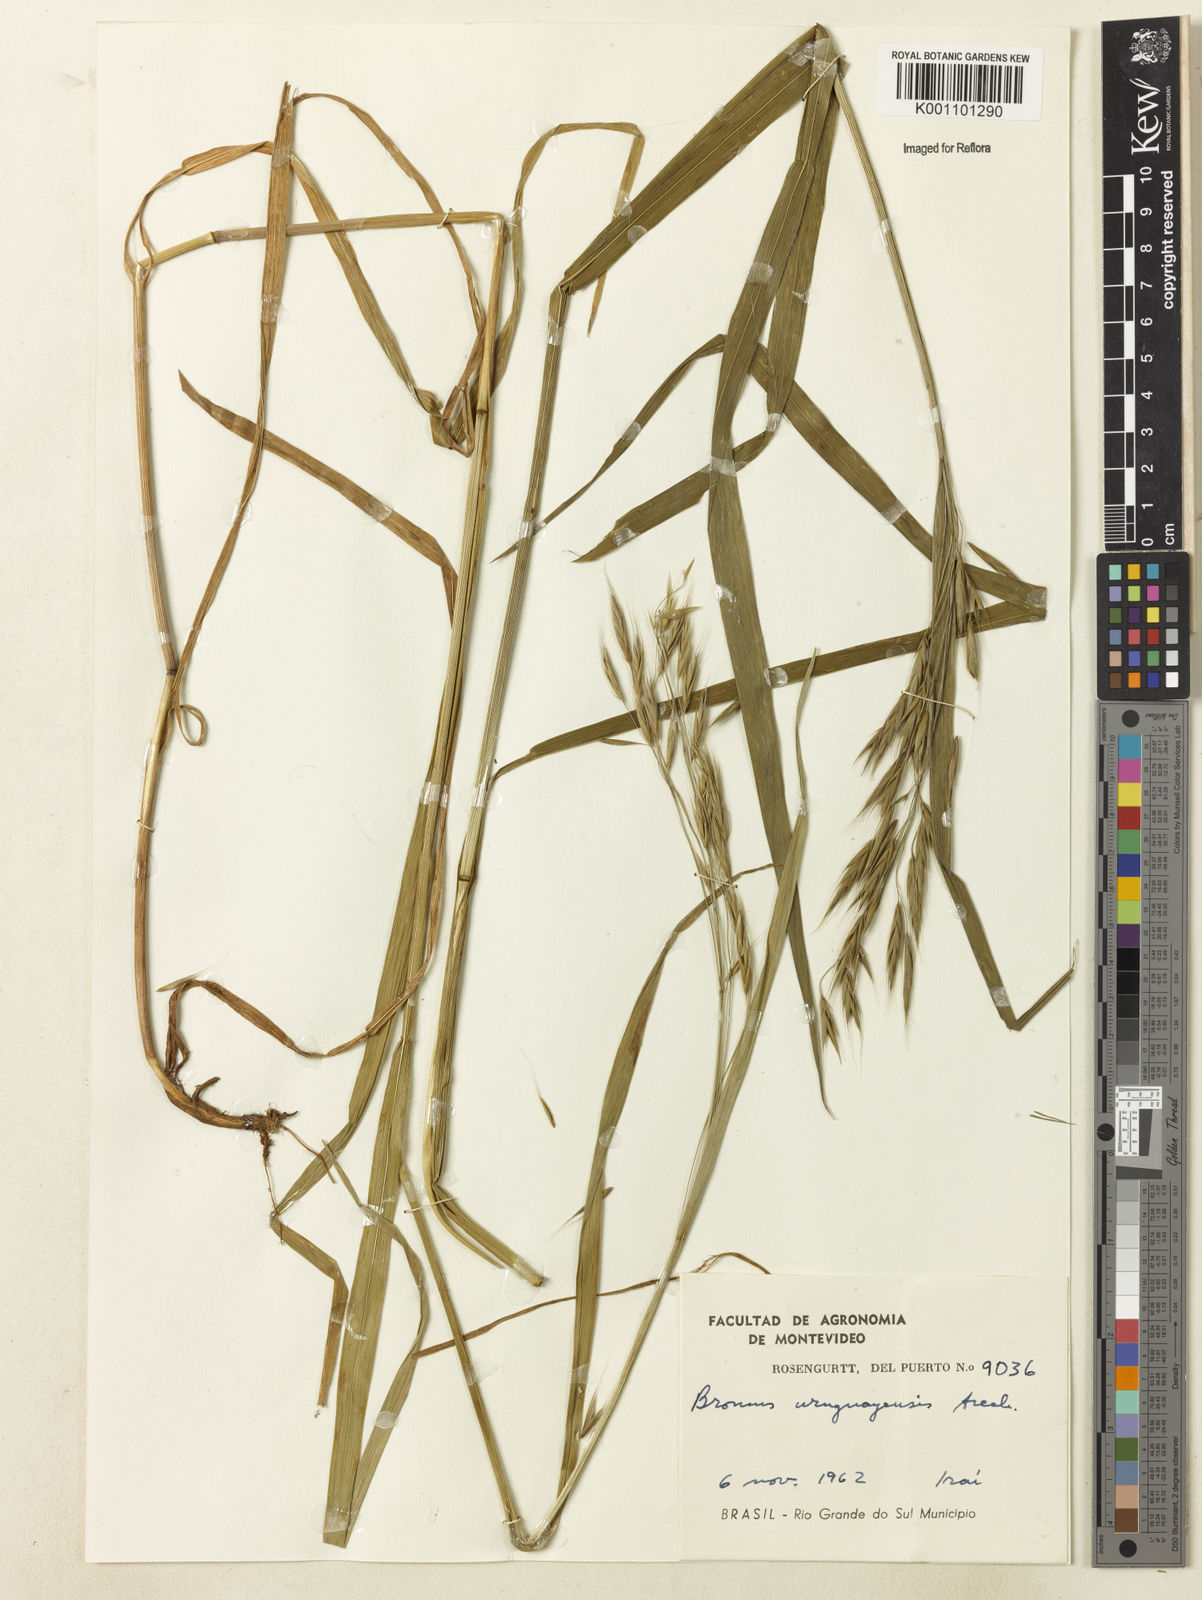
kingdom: Plantae
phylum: Tracheophyta
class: Liliopsida
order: Poales
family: Poaceae
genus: Bromus
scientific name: Bromus
